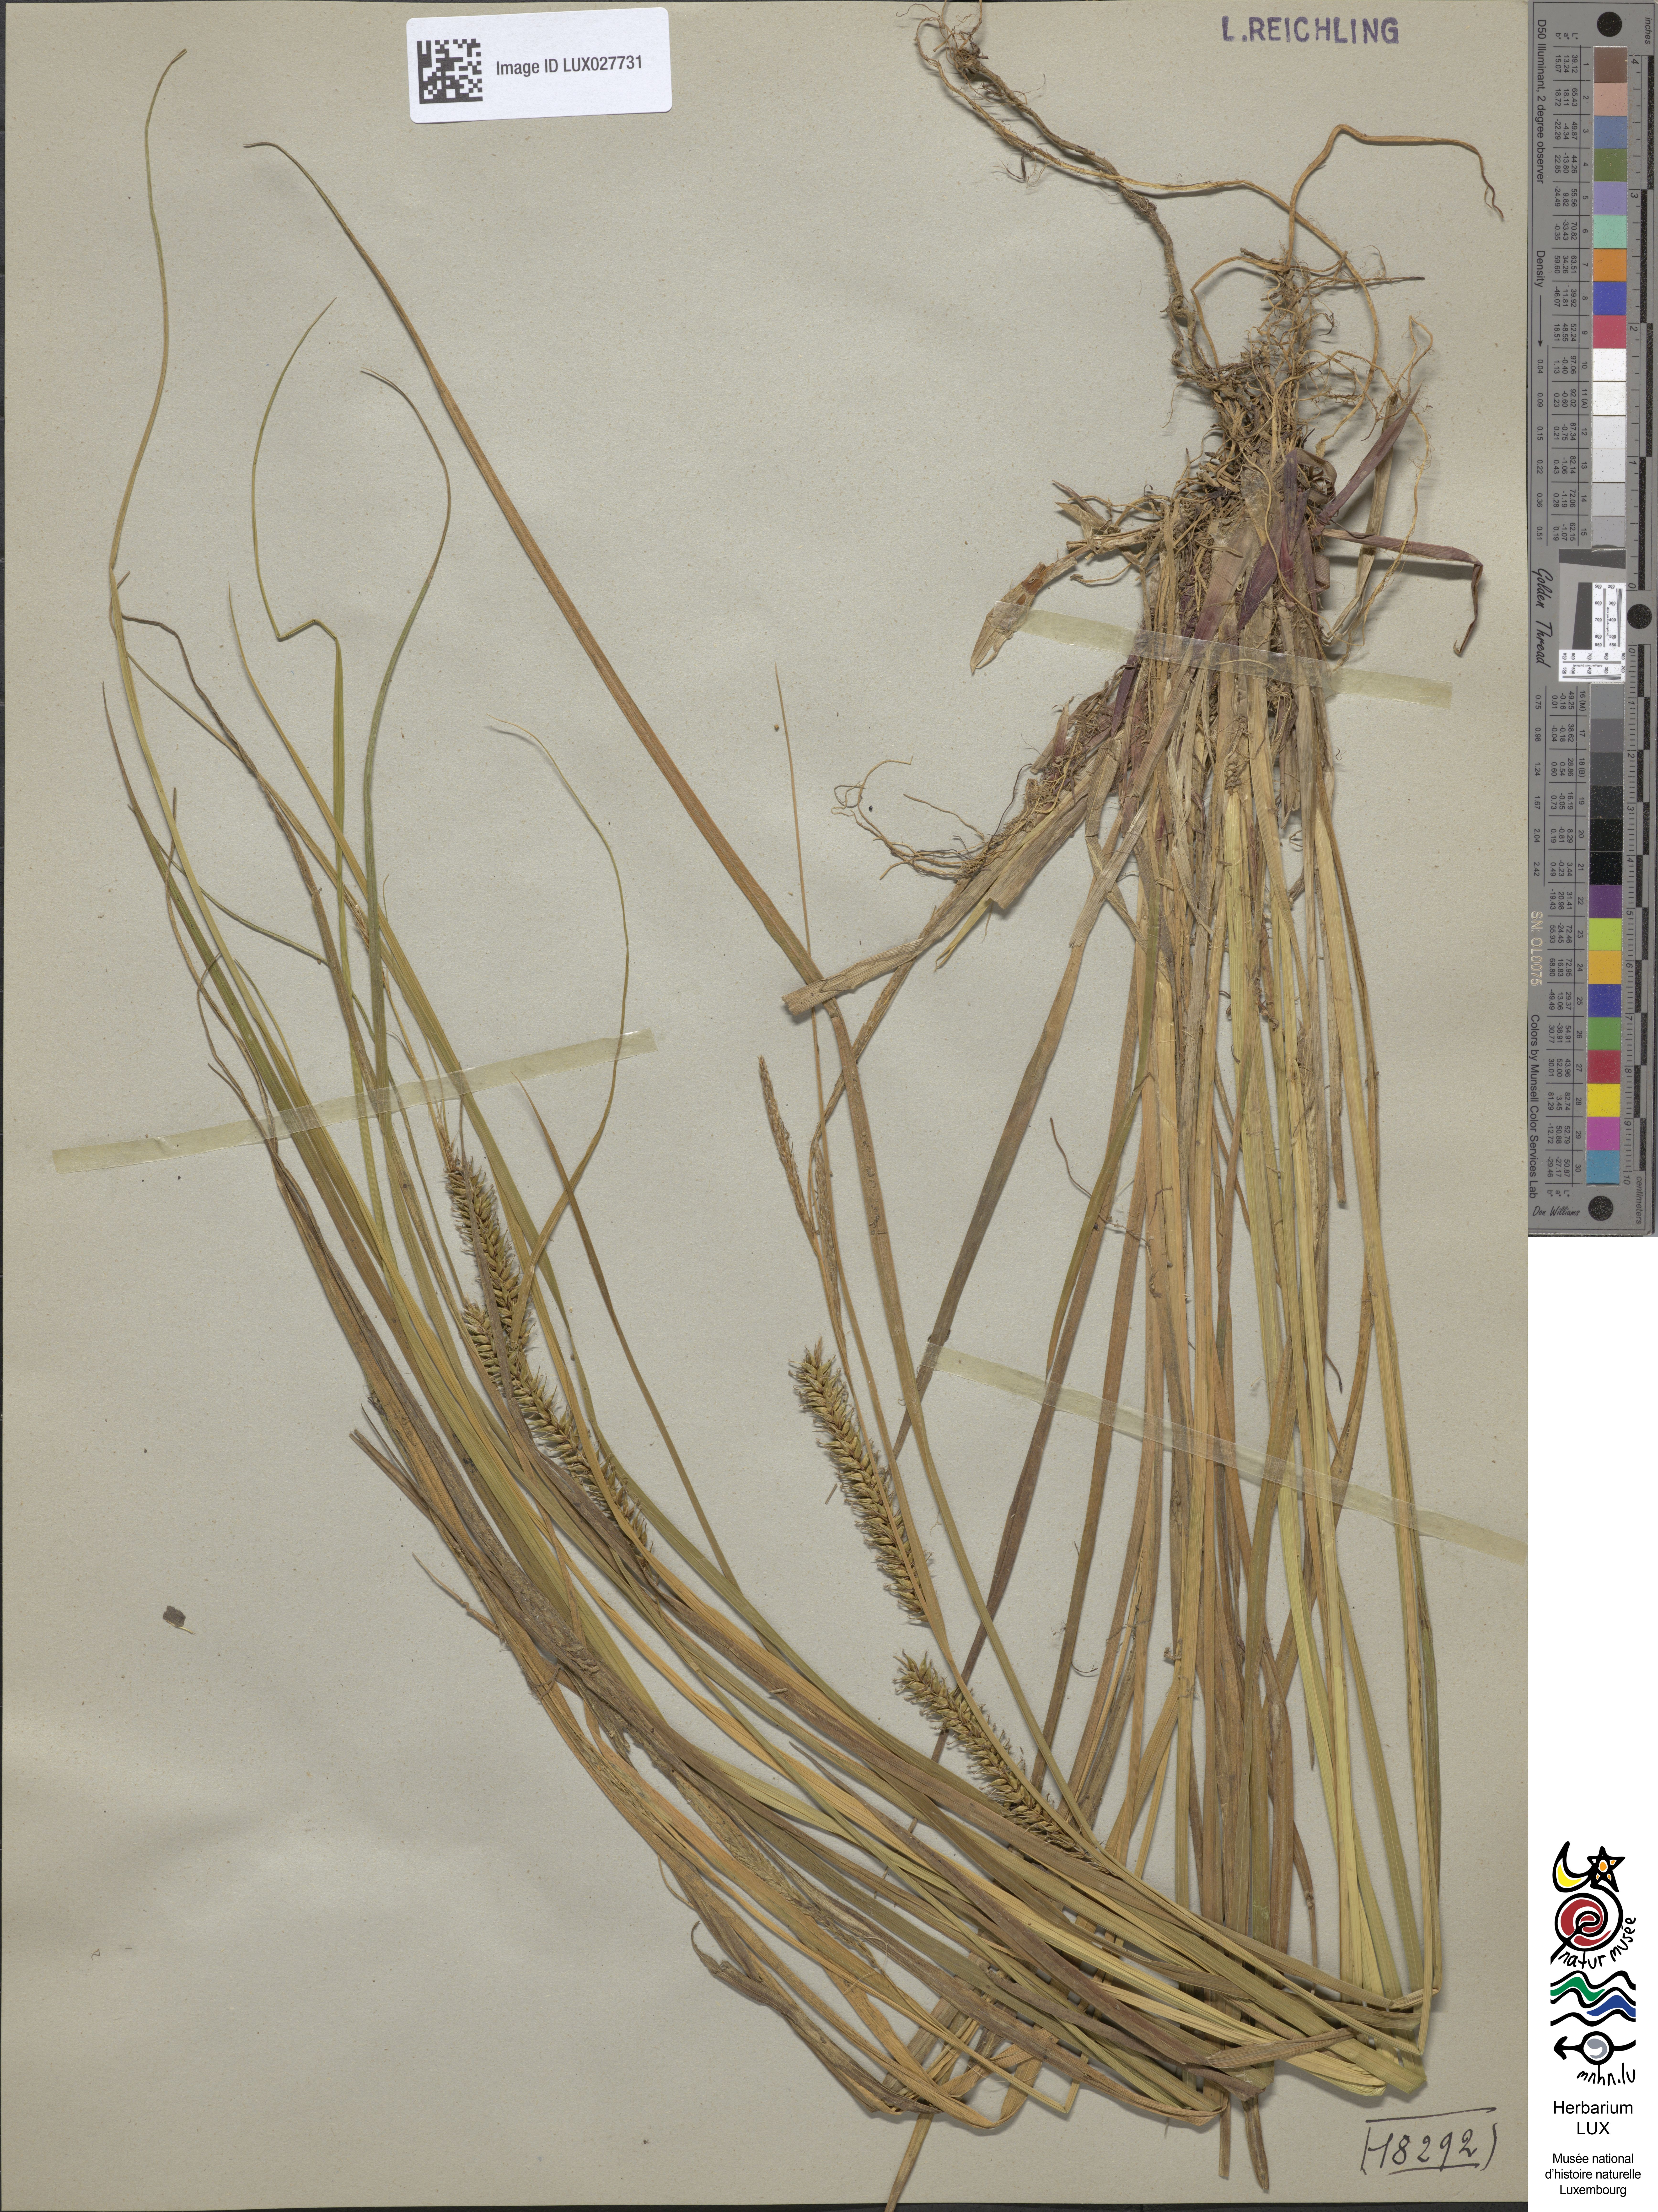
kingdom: Plantae
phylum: Tracheophyta
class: Liliopsida
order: Poales
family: Cyperaceae
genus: Carex
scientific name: Carex vesicaria
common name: Bladder-sedge
